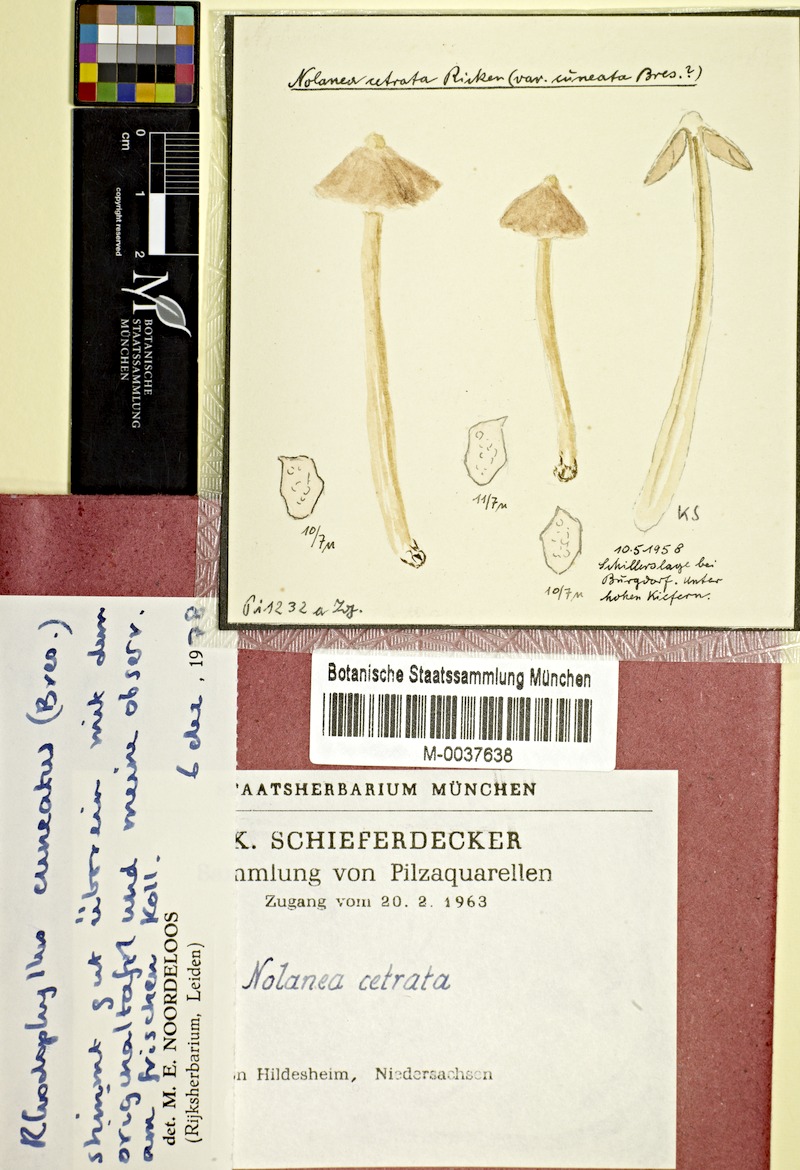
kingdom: Fungi
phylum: Basidiomycota
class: Agaricomycetes
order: Agaricales
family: Entolomataceae
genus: Entoloma
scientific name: Entoloma cetratum
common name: Honey pinkgill
